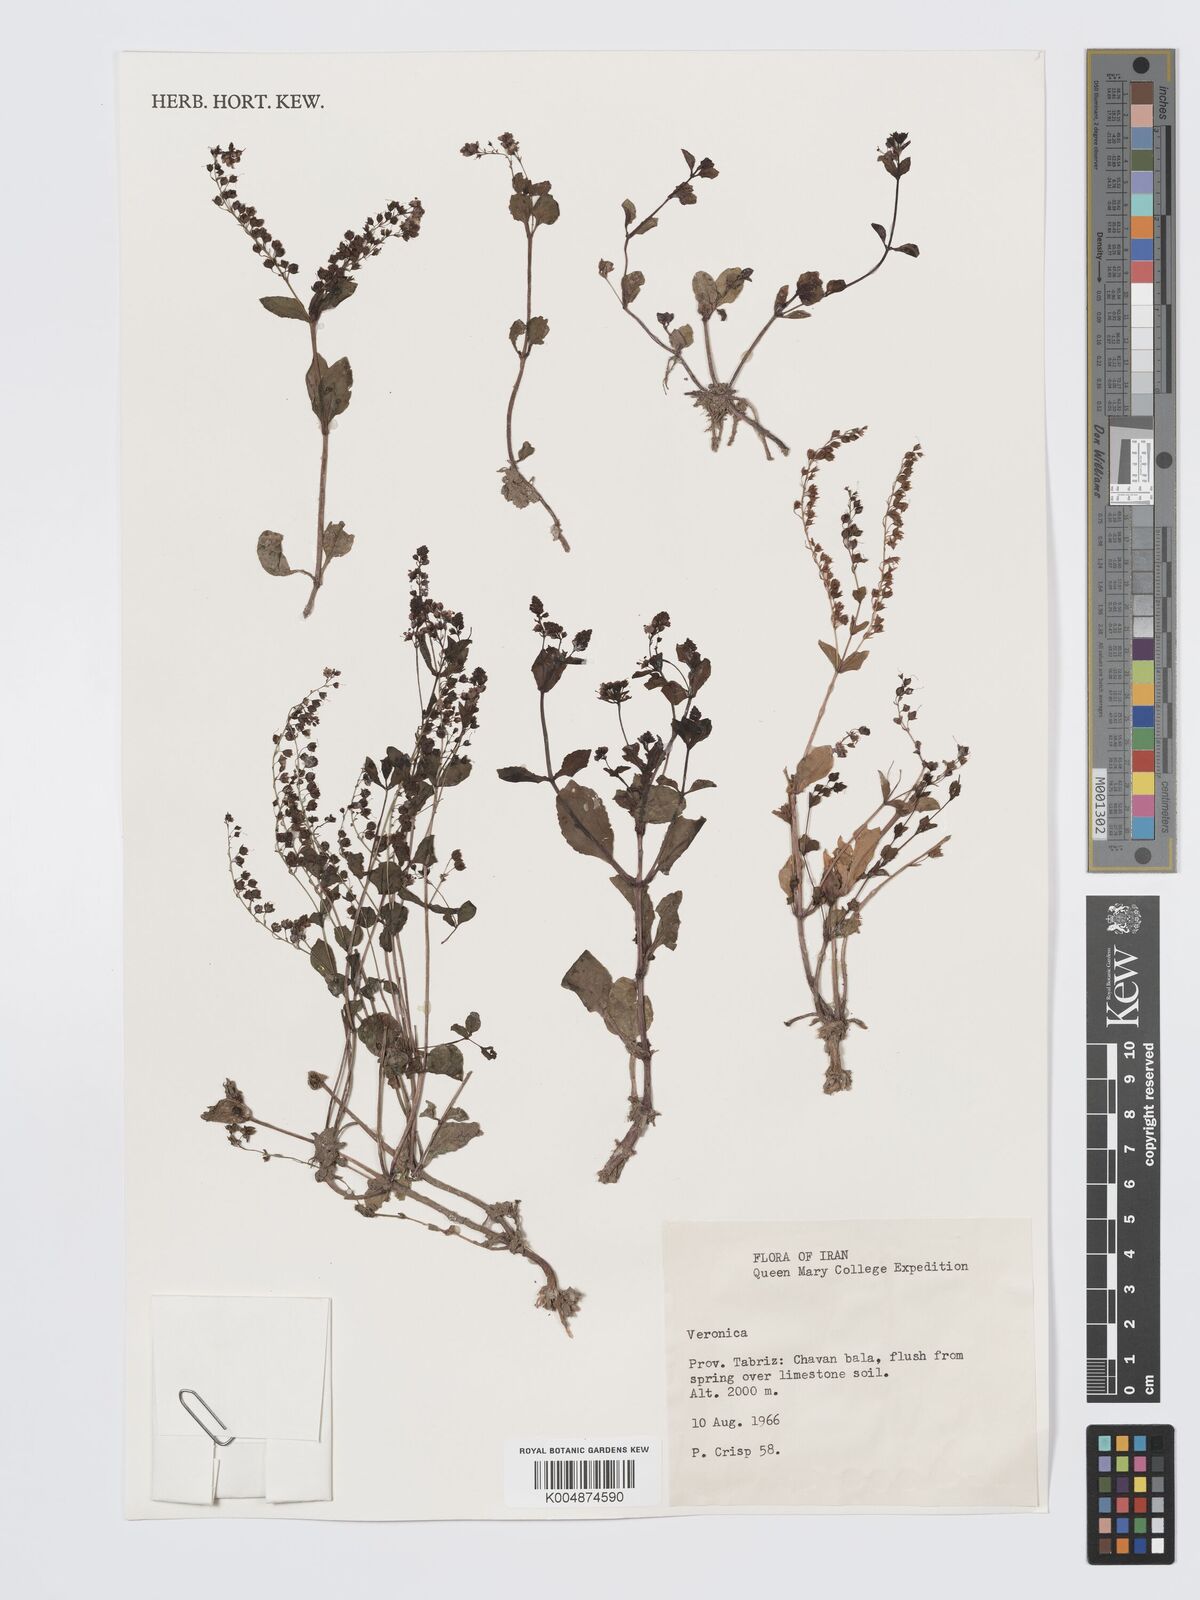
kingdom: Plantae
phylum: Tracheophyta
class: Magnoliopsida
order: Lamiales
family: Plantaginaceae
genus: Veronica
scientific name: Veronica
